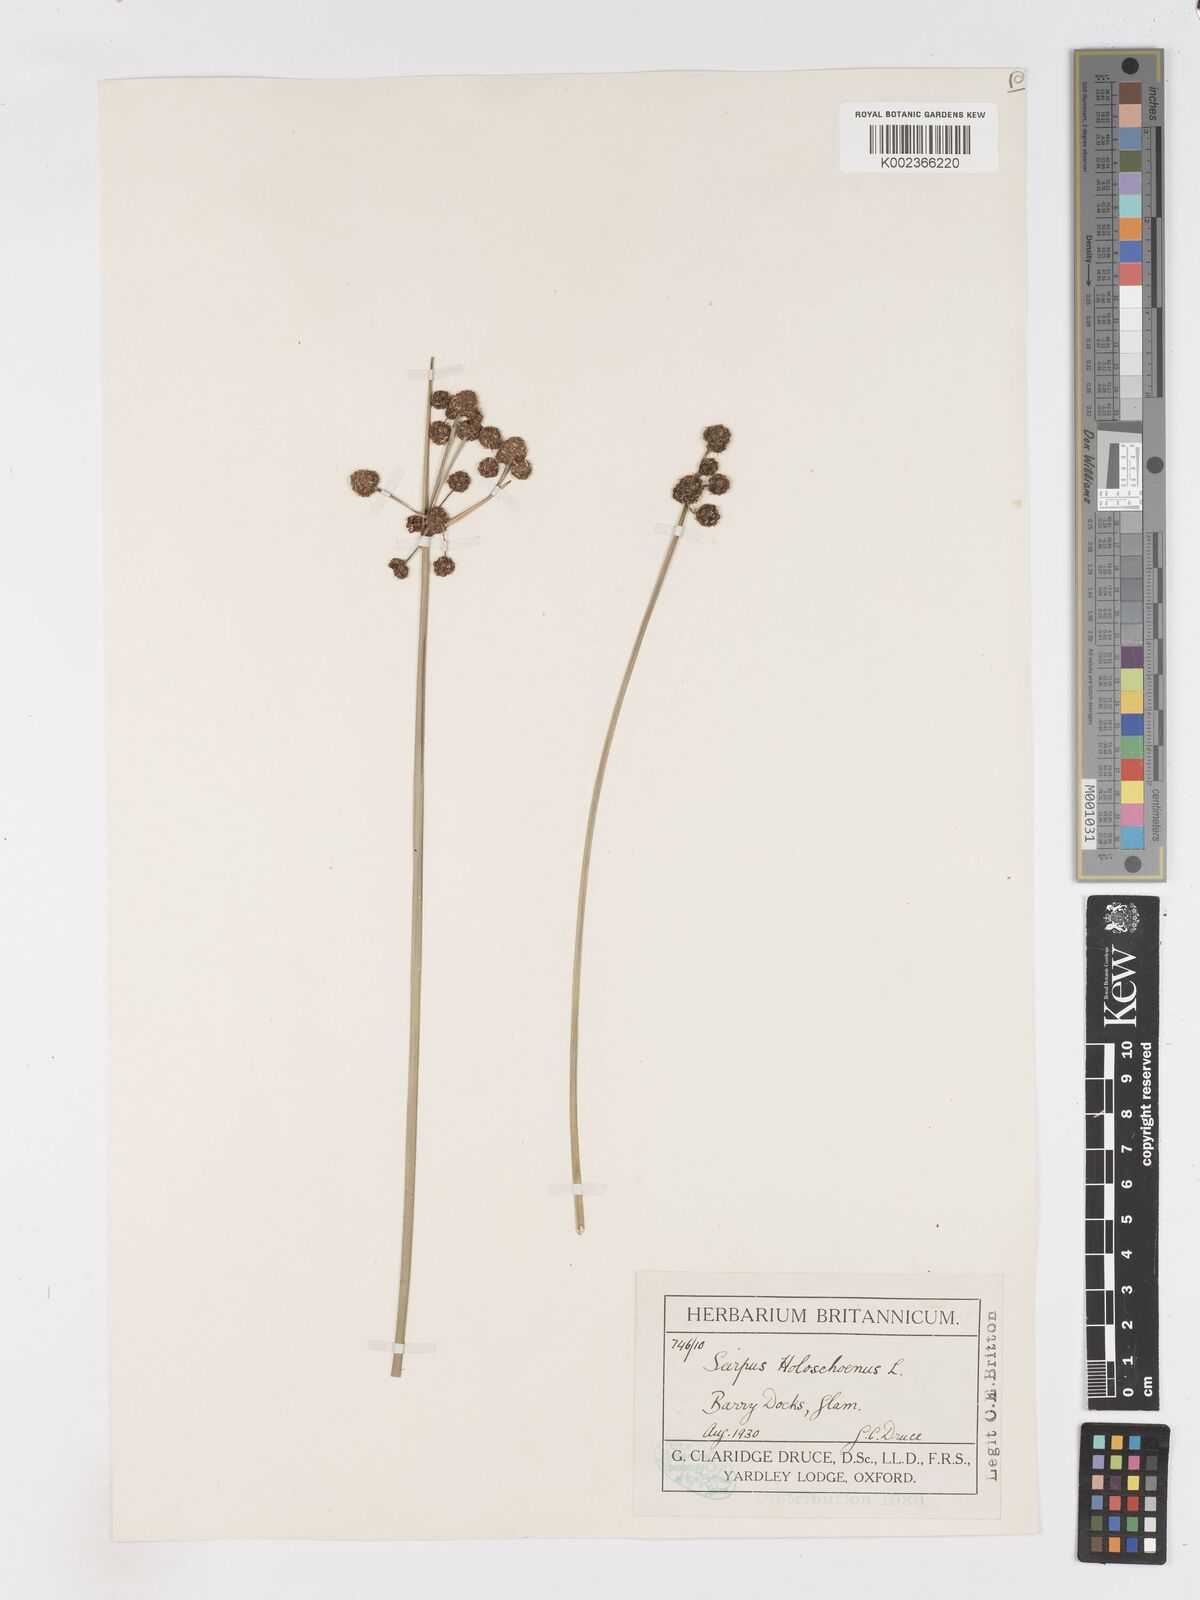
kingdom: Plantae
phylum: Tracheophyta
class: Liliopsida
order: Poales
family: Cyperaceae
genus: Scirpoides
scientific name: Scirpoides holoschoenus
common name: Round-headed club-rush
